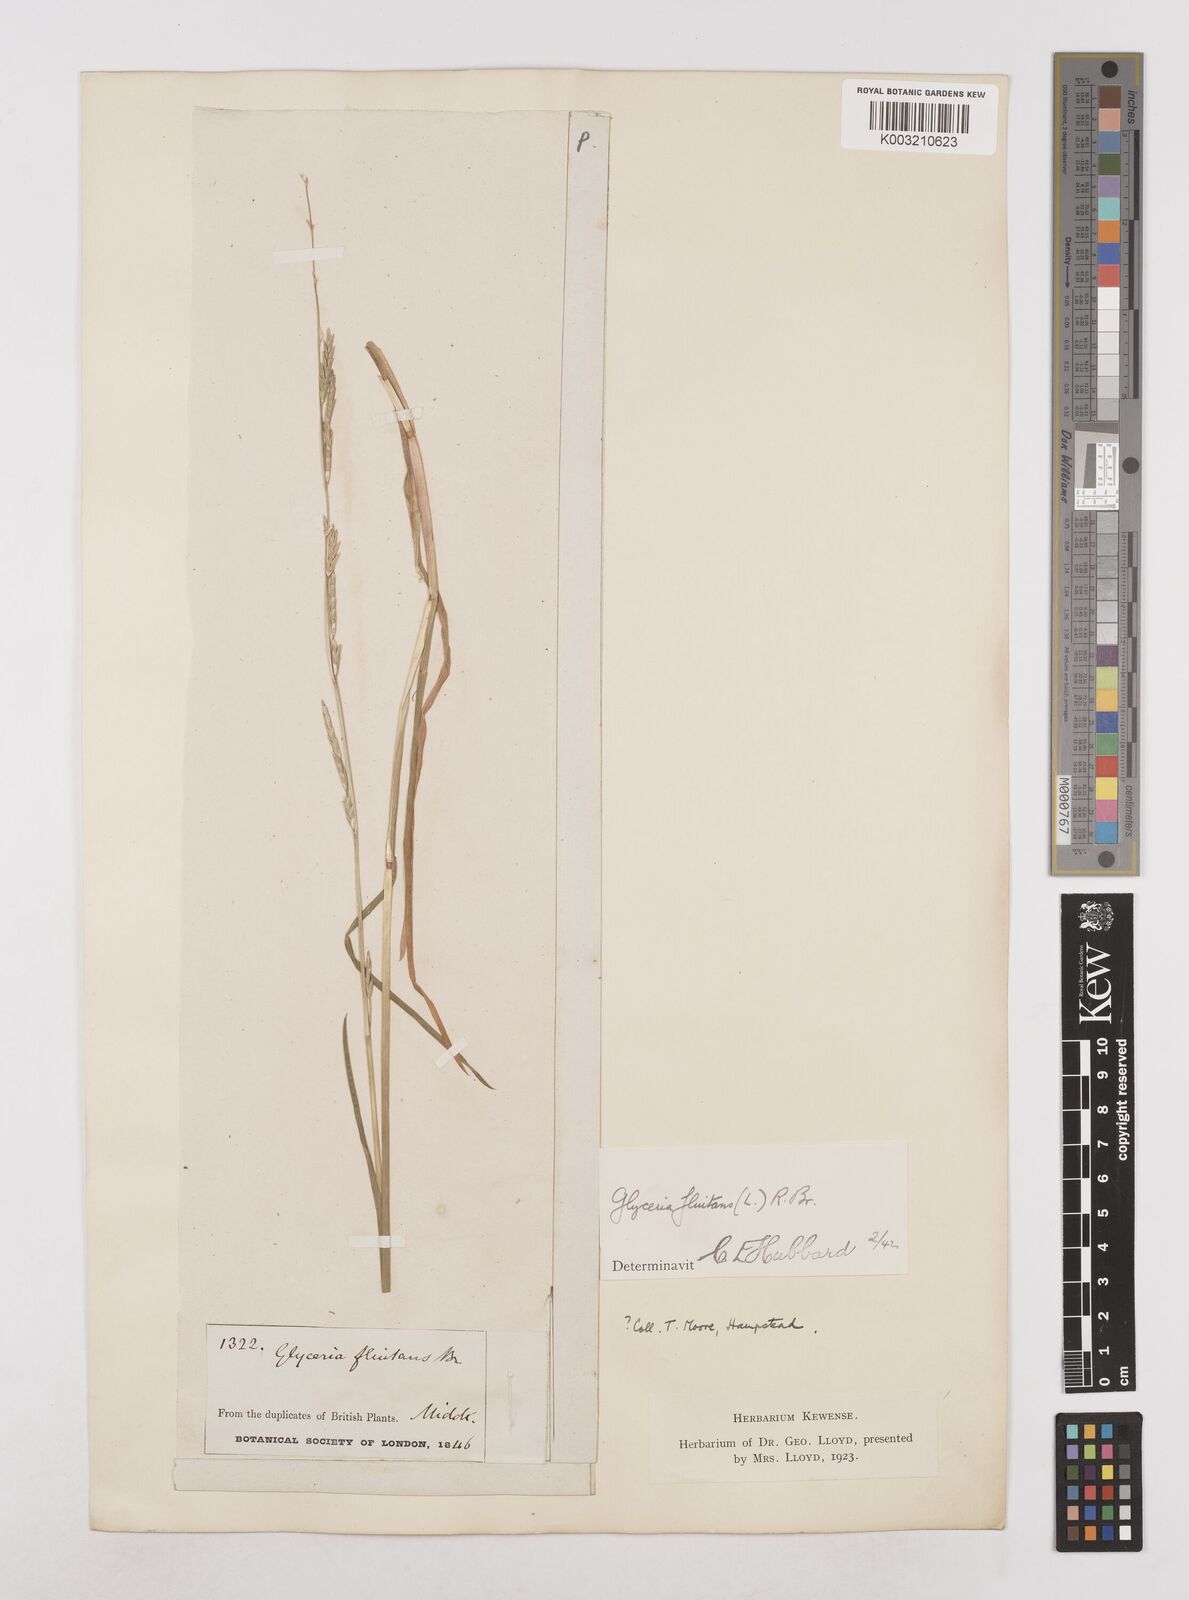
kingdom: Plantae
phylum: Tracheophyta
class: Liliopsida
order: Poales
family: Poaceae
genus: Glyceria
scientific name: Glyceria fluitans
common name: Floating sweet-grass
